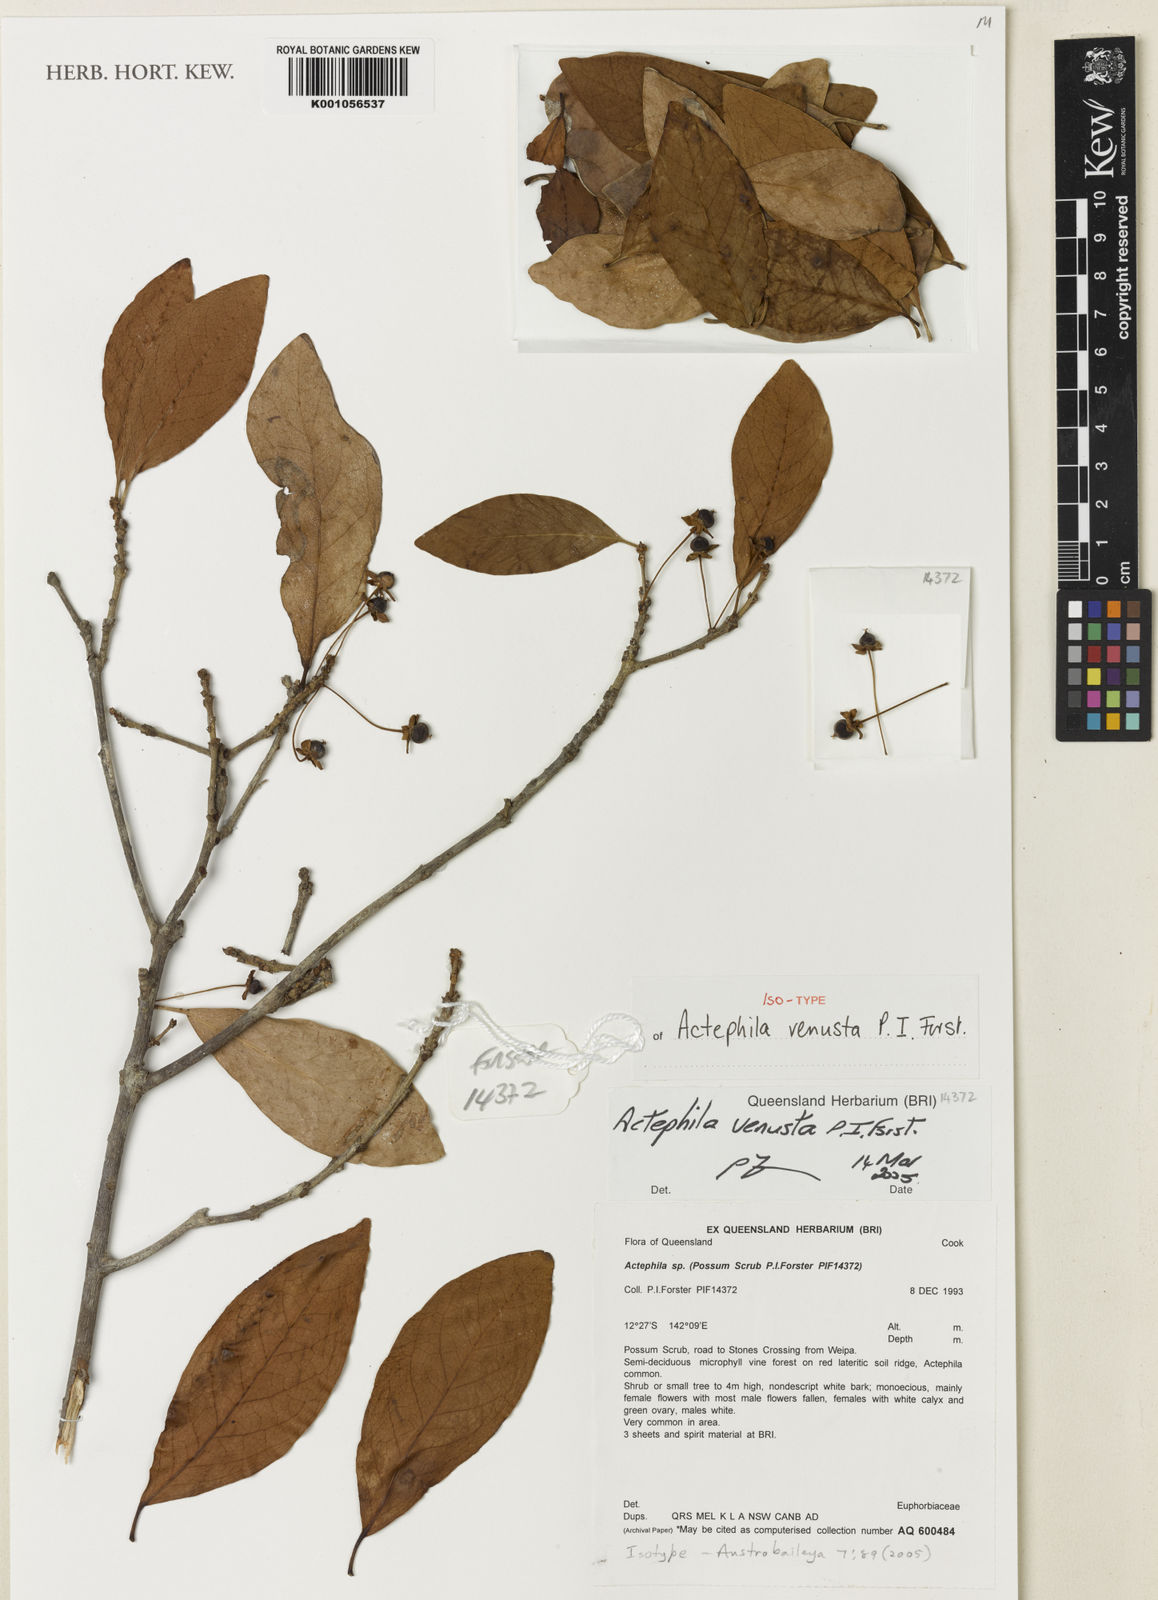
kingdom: Plantae
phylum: Tracheophyta
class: Magnoliopsida
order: Malpighiales
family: Phyllanthaceae
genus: Actephila
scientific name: Actephila venusta
